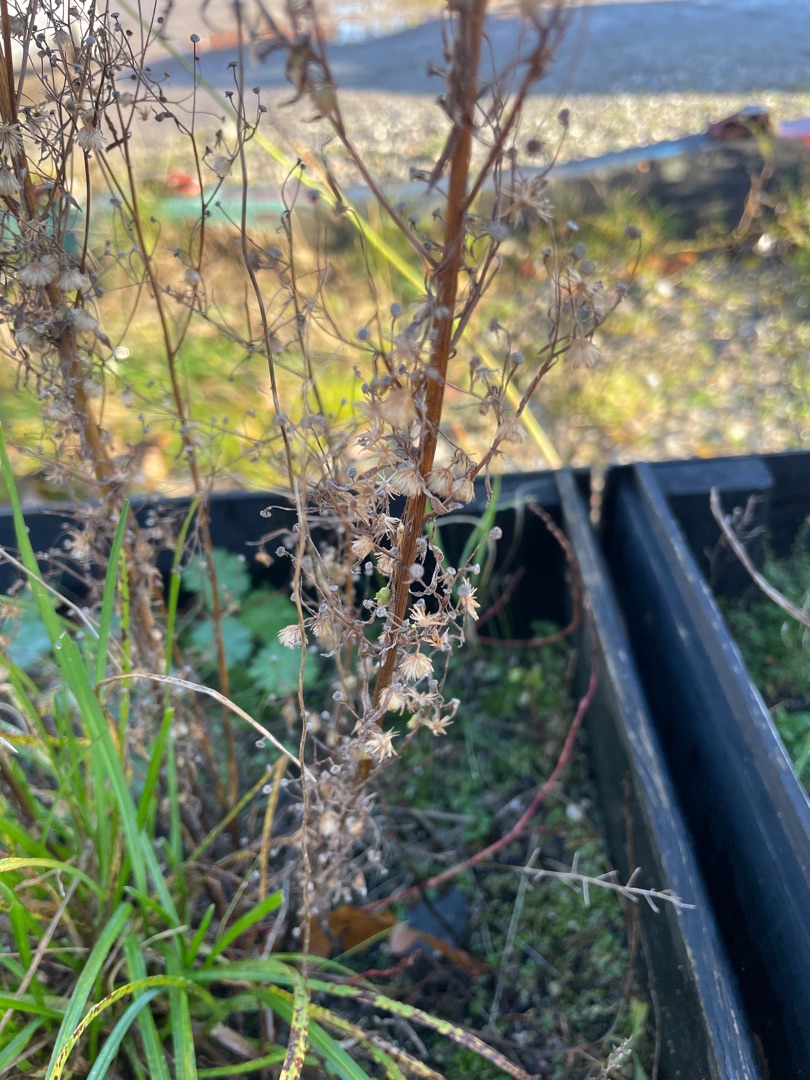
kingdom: Plantae
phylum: Tracheophyta
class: Magnoliopsida
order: Asterales
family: Asteraceae
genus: Erigeron
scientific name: Erigeron canadensis
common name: Kanadisk bakkestjerne
